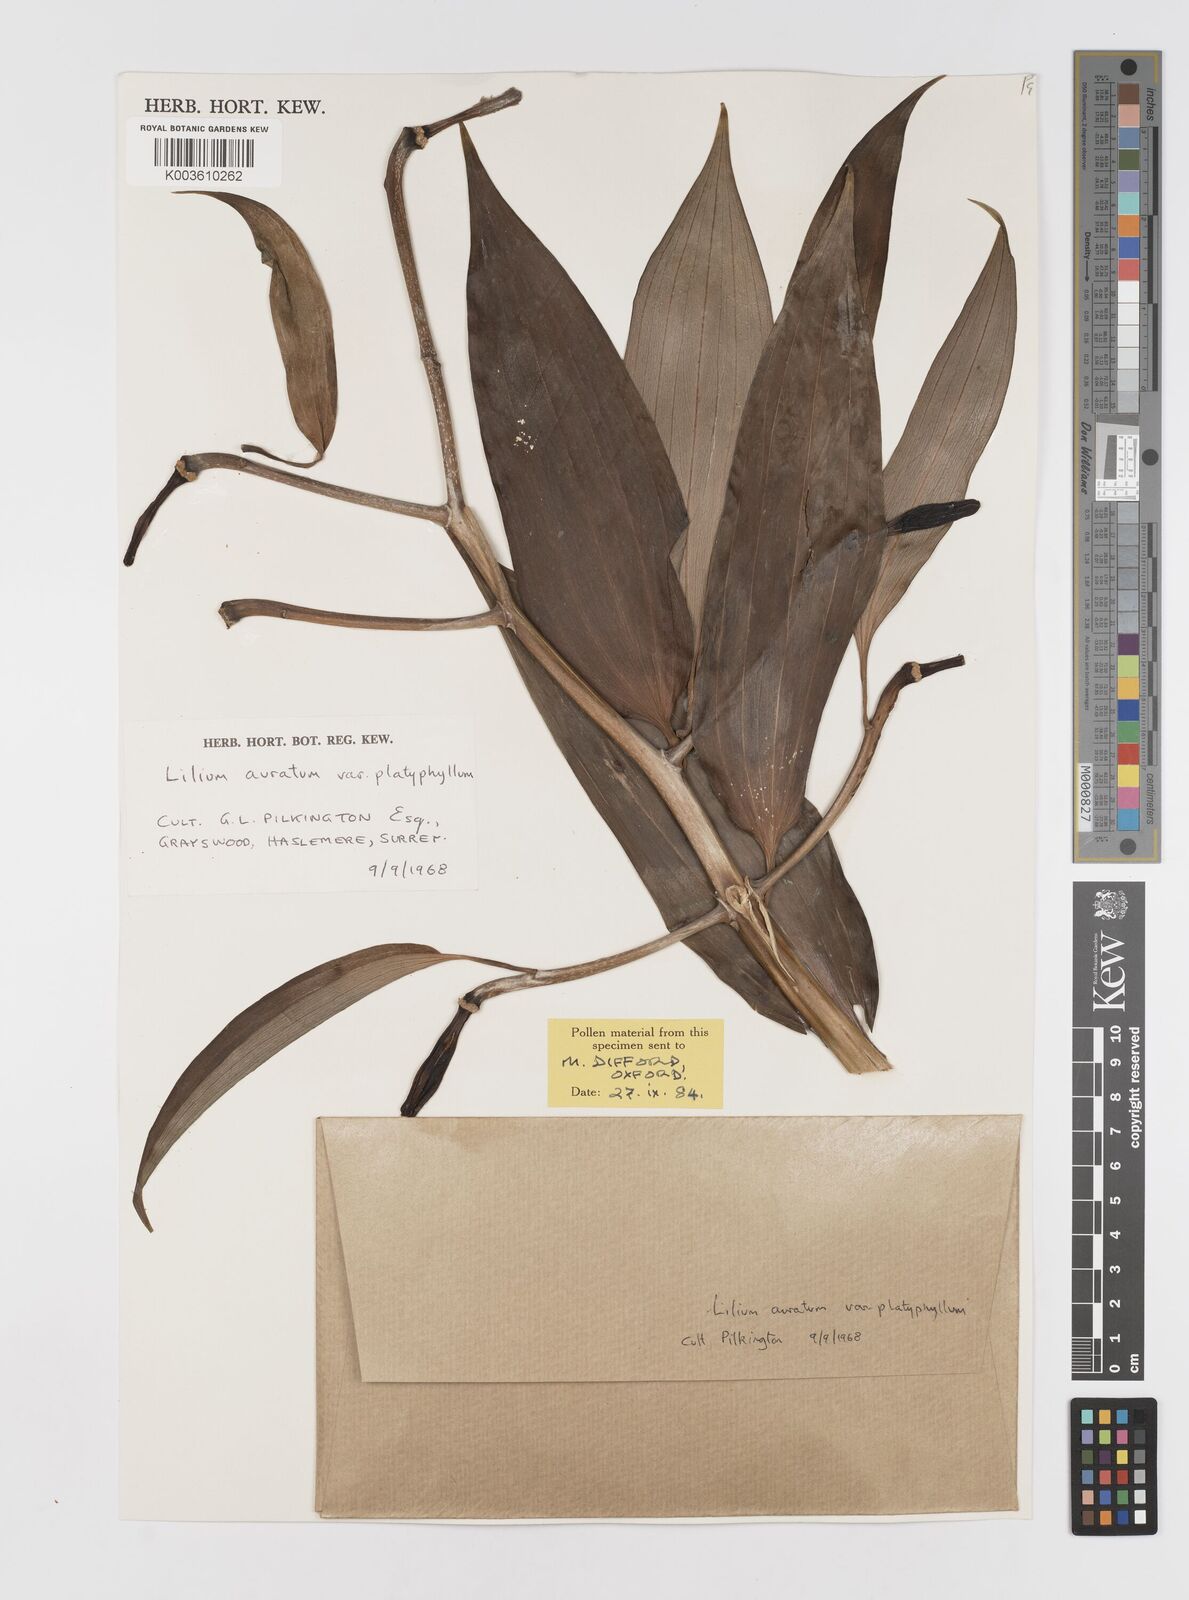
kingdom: Plantae
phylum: Tracheophyta
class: Liliopsida
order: Liliales
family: Liliaceae
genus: Lilium
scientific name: Lilium auratum
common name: Golden-ray lily
